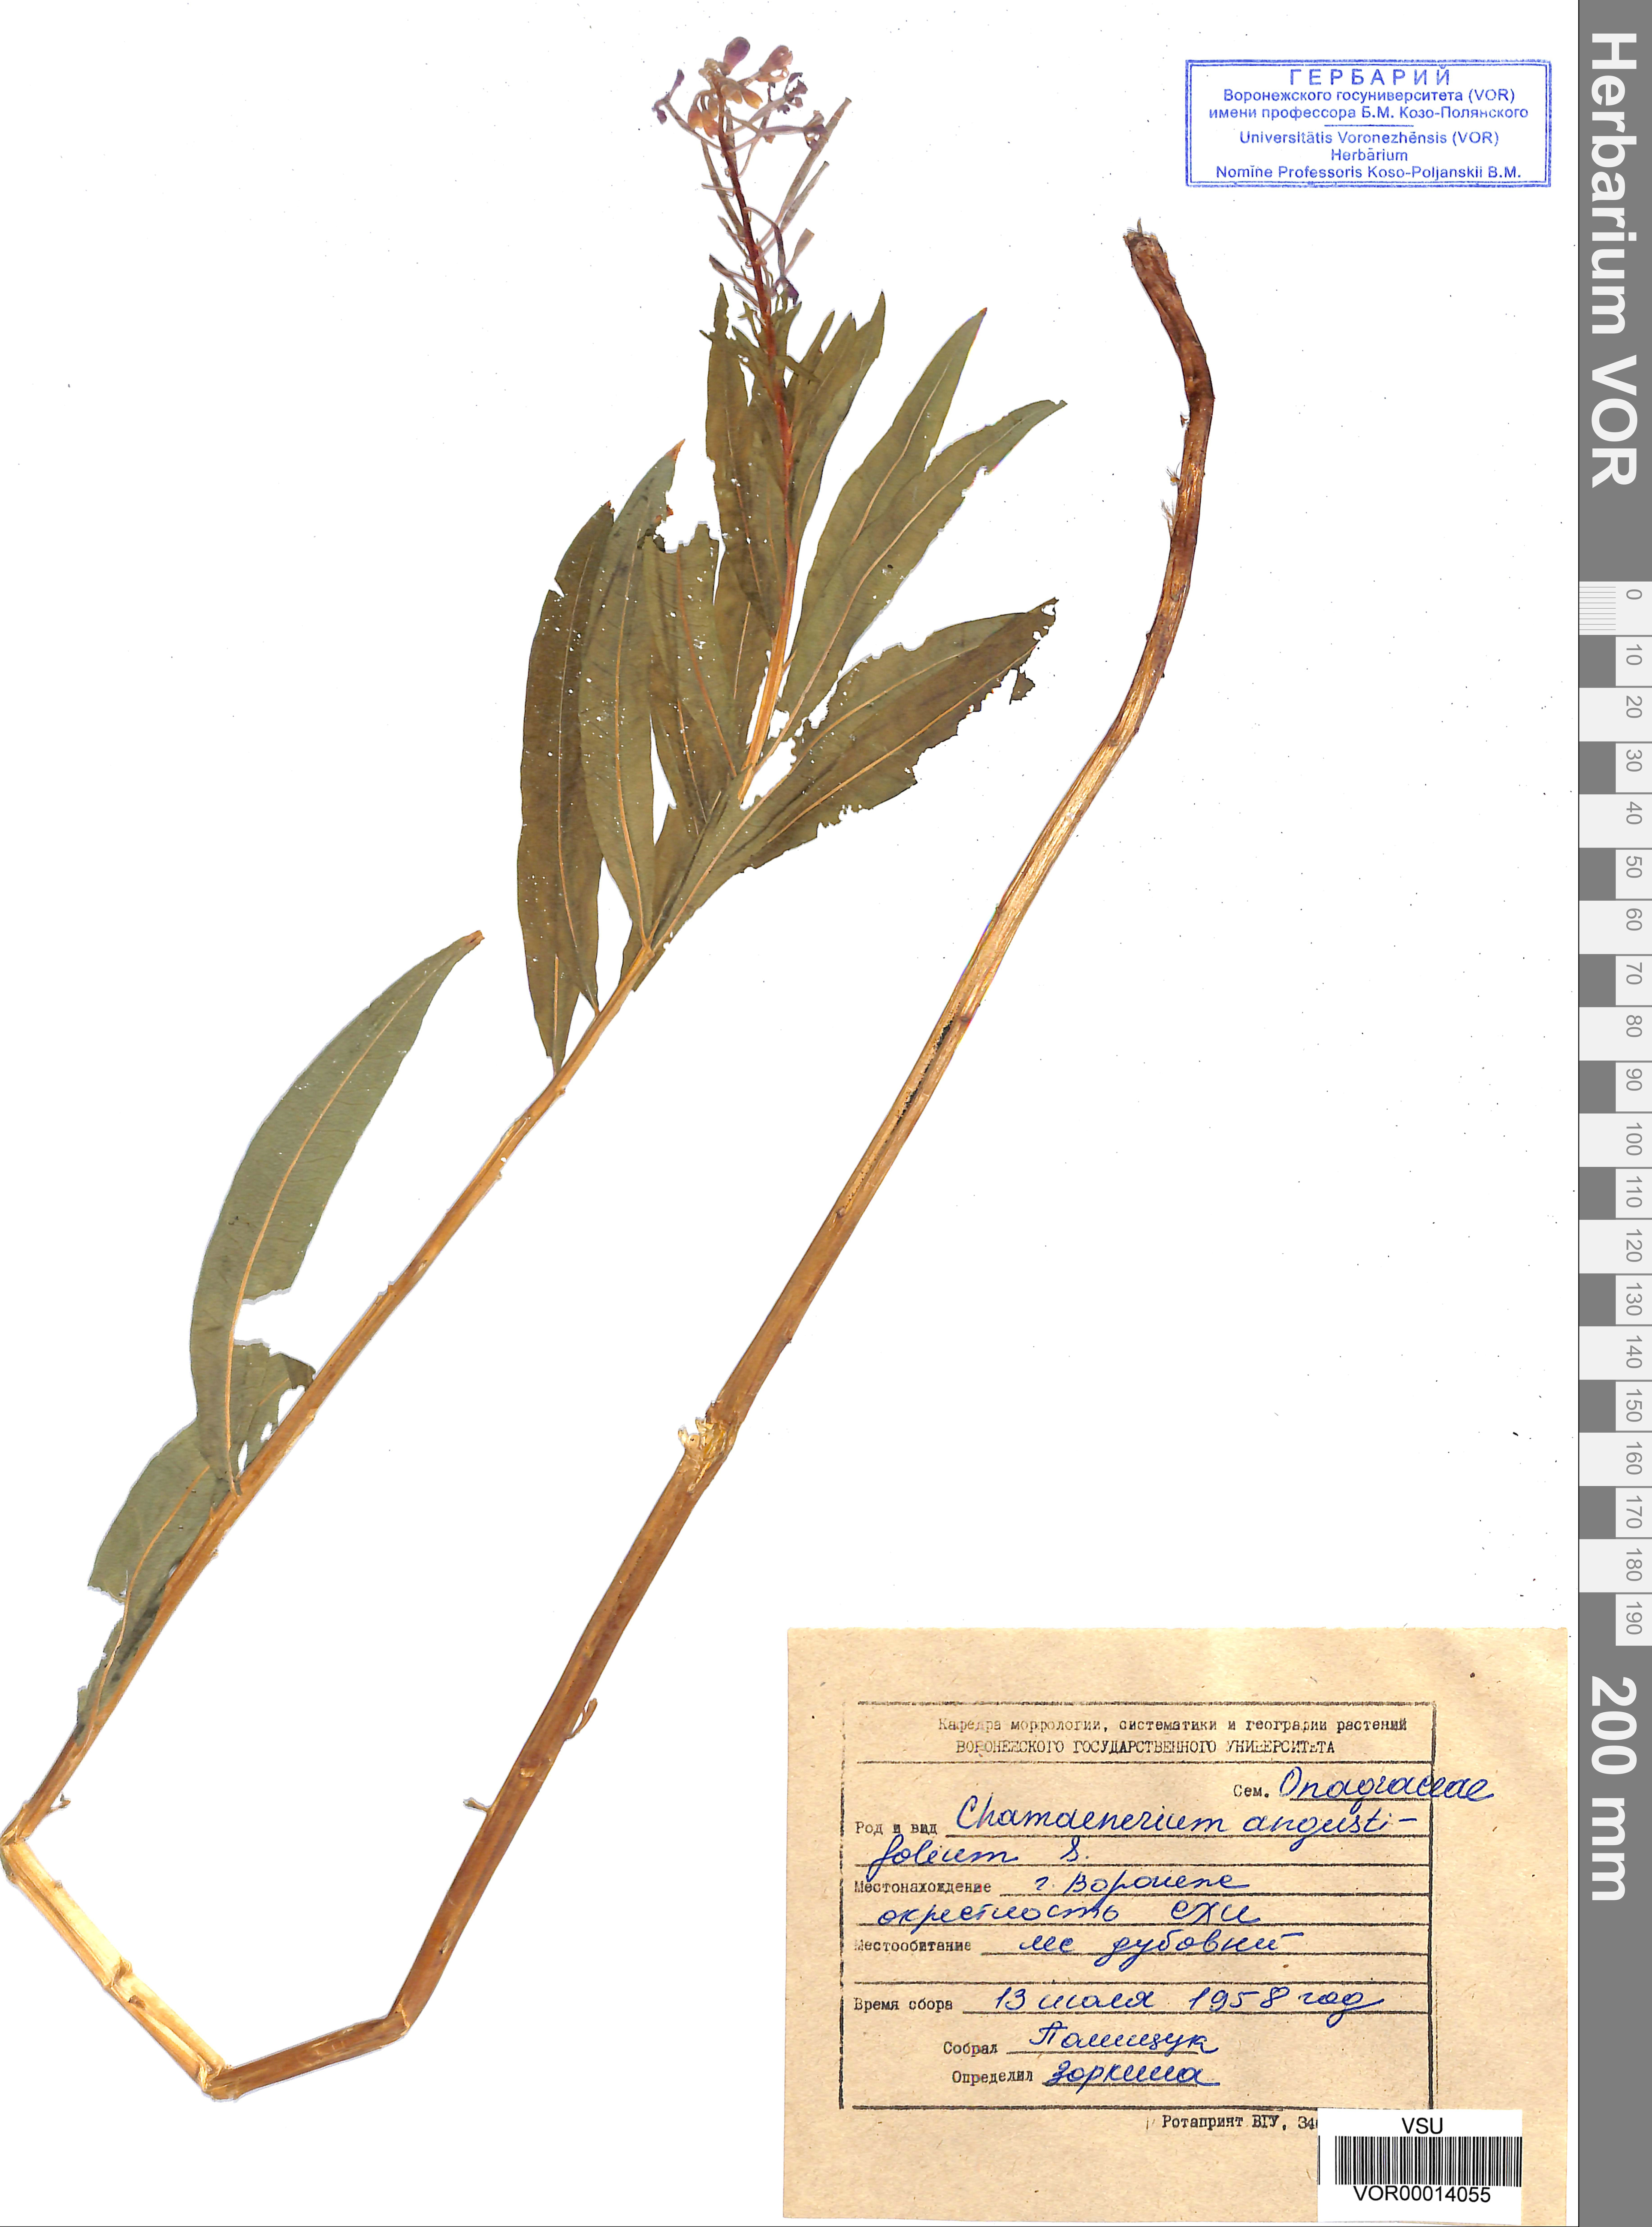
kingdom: Plantae
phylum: Tracheophyta
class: Magnoliopsida
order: Myrtales
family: Onagraceae
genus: Chamaenerion
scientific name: Chamaenerion angustifolium
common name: Fireweed
